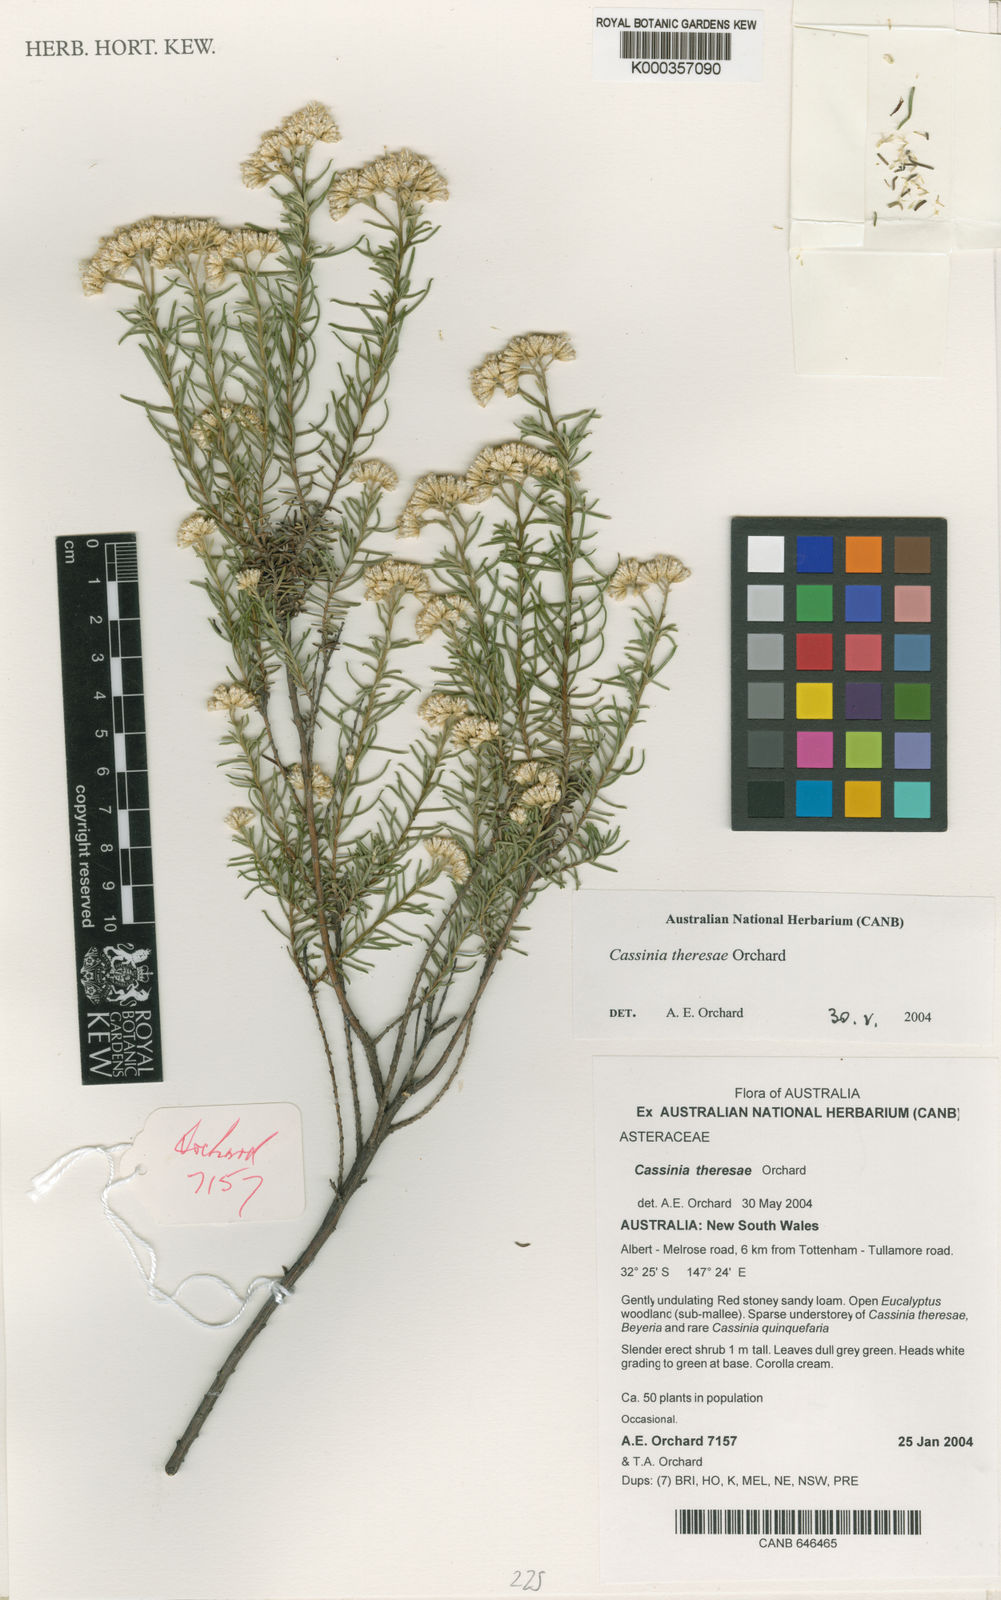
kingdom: Plantae
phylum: Tracheophyta
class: Magnoliopsida
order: Asterales
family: Asteraceae
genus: Cassinia
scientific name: Cassinia theresae
